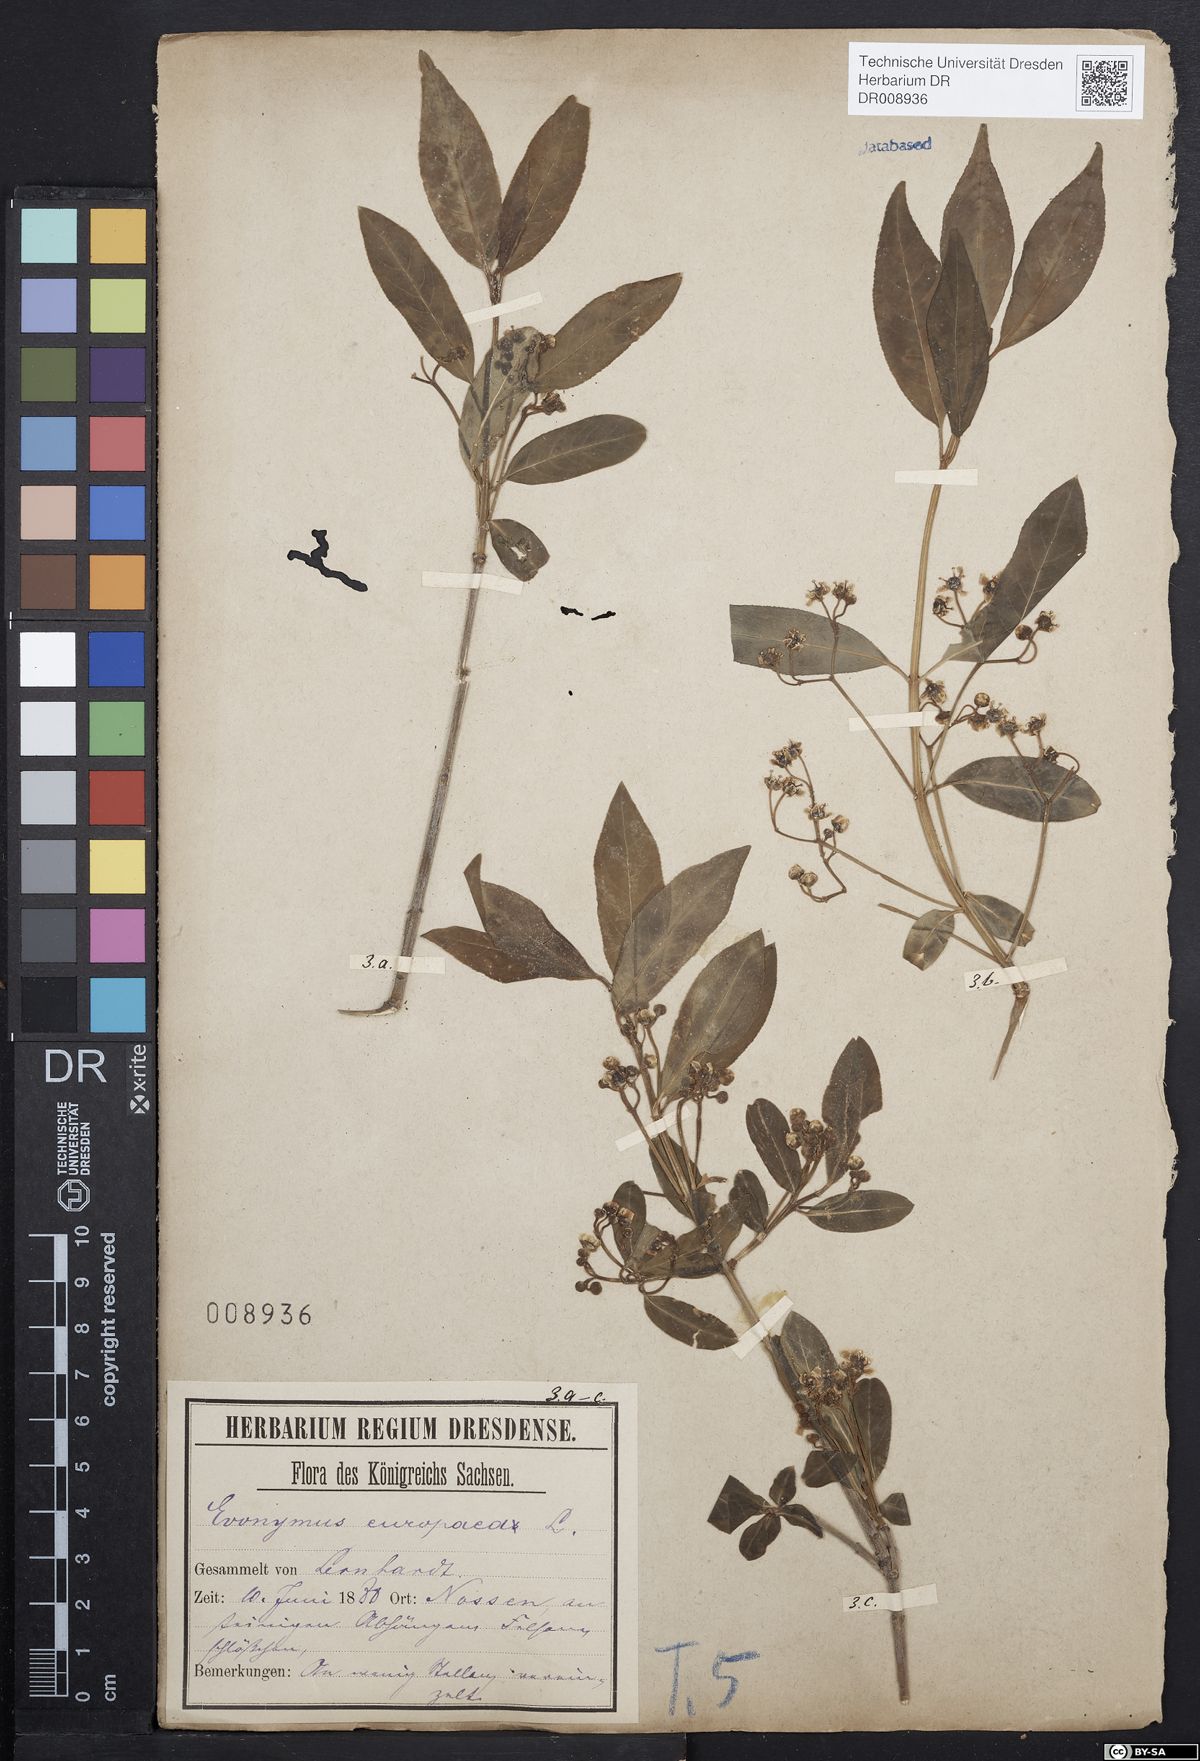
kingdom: Plantae
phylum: Tracheophyta
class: Magnoliopsida
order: Celastrales
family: Celastraceae
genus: Euonymus
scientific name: Euonymus europaeus
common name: Spindle
